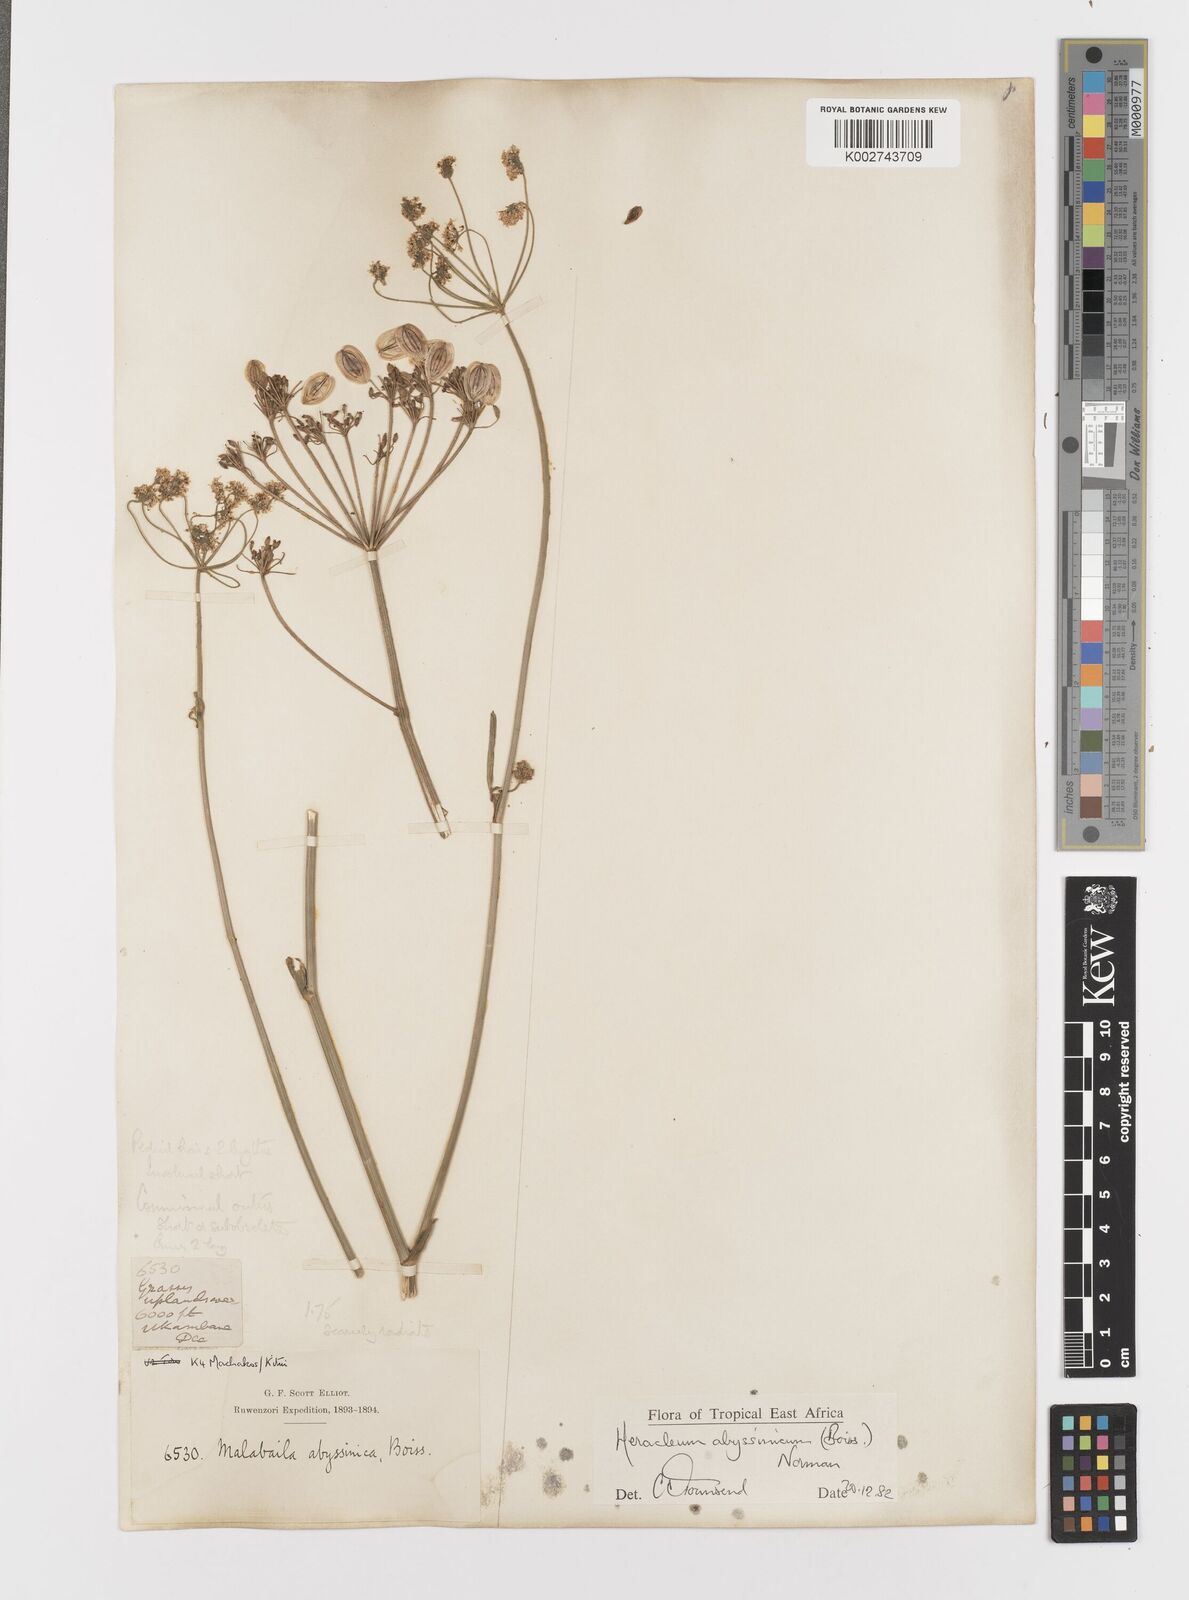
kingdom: Plantae
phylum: Tracheophyta
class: Magnoliopsida
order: Apiales
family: Apiaceae
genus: Heracleum
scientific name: Heracleum abyssinicum
